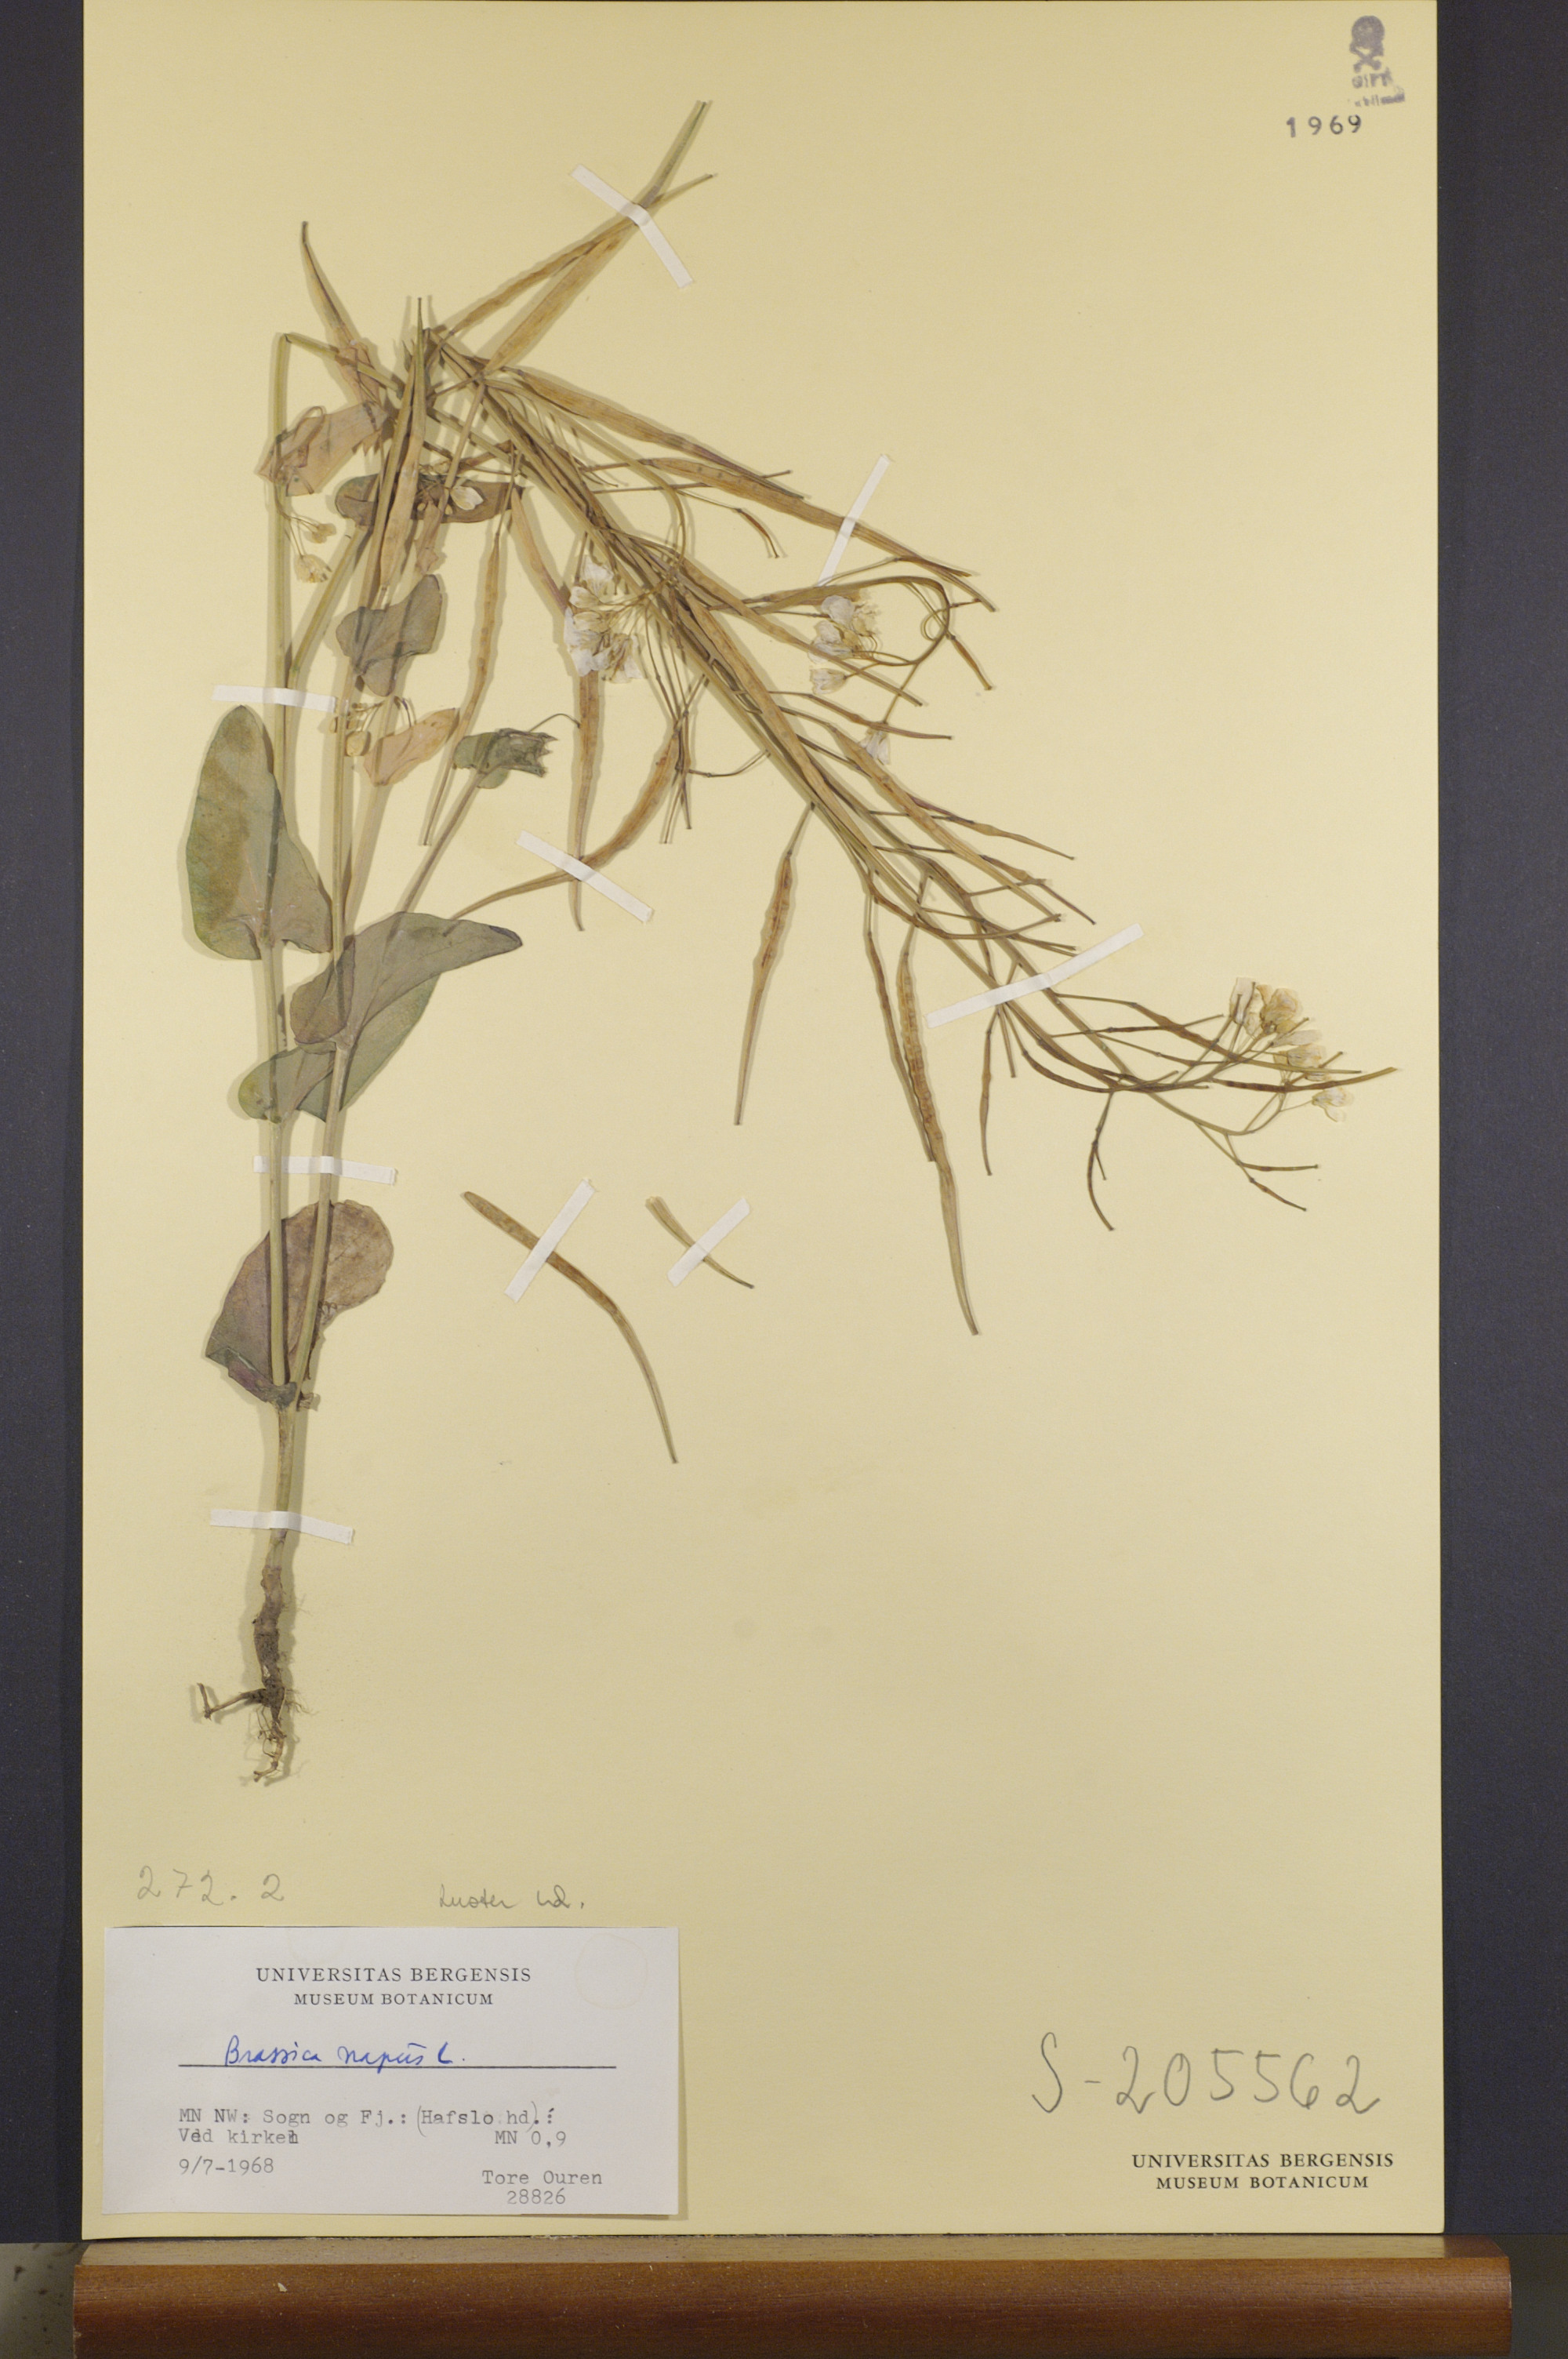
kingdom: Plantae
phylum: Tracheophyta
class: Magnoliopsida
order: Brassicales
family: Brassicaceae
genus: Brassica
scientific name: Brassica napus
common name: Rape
